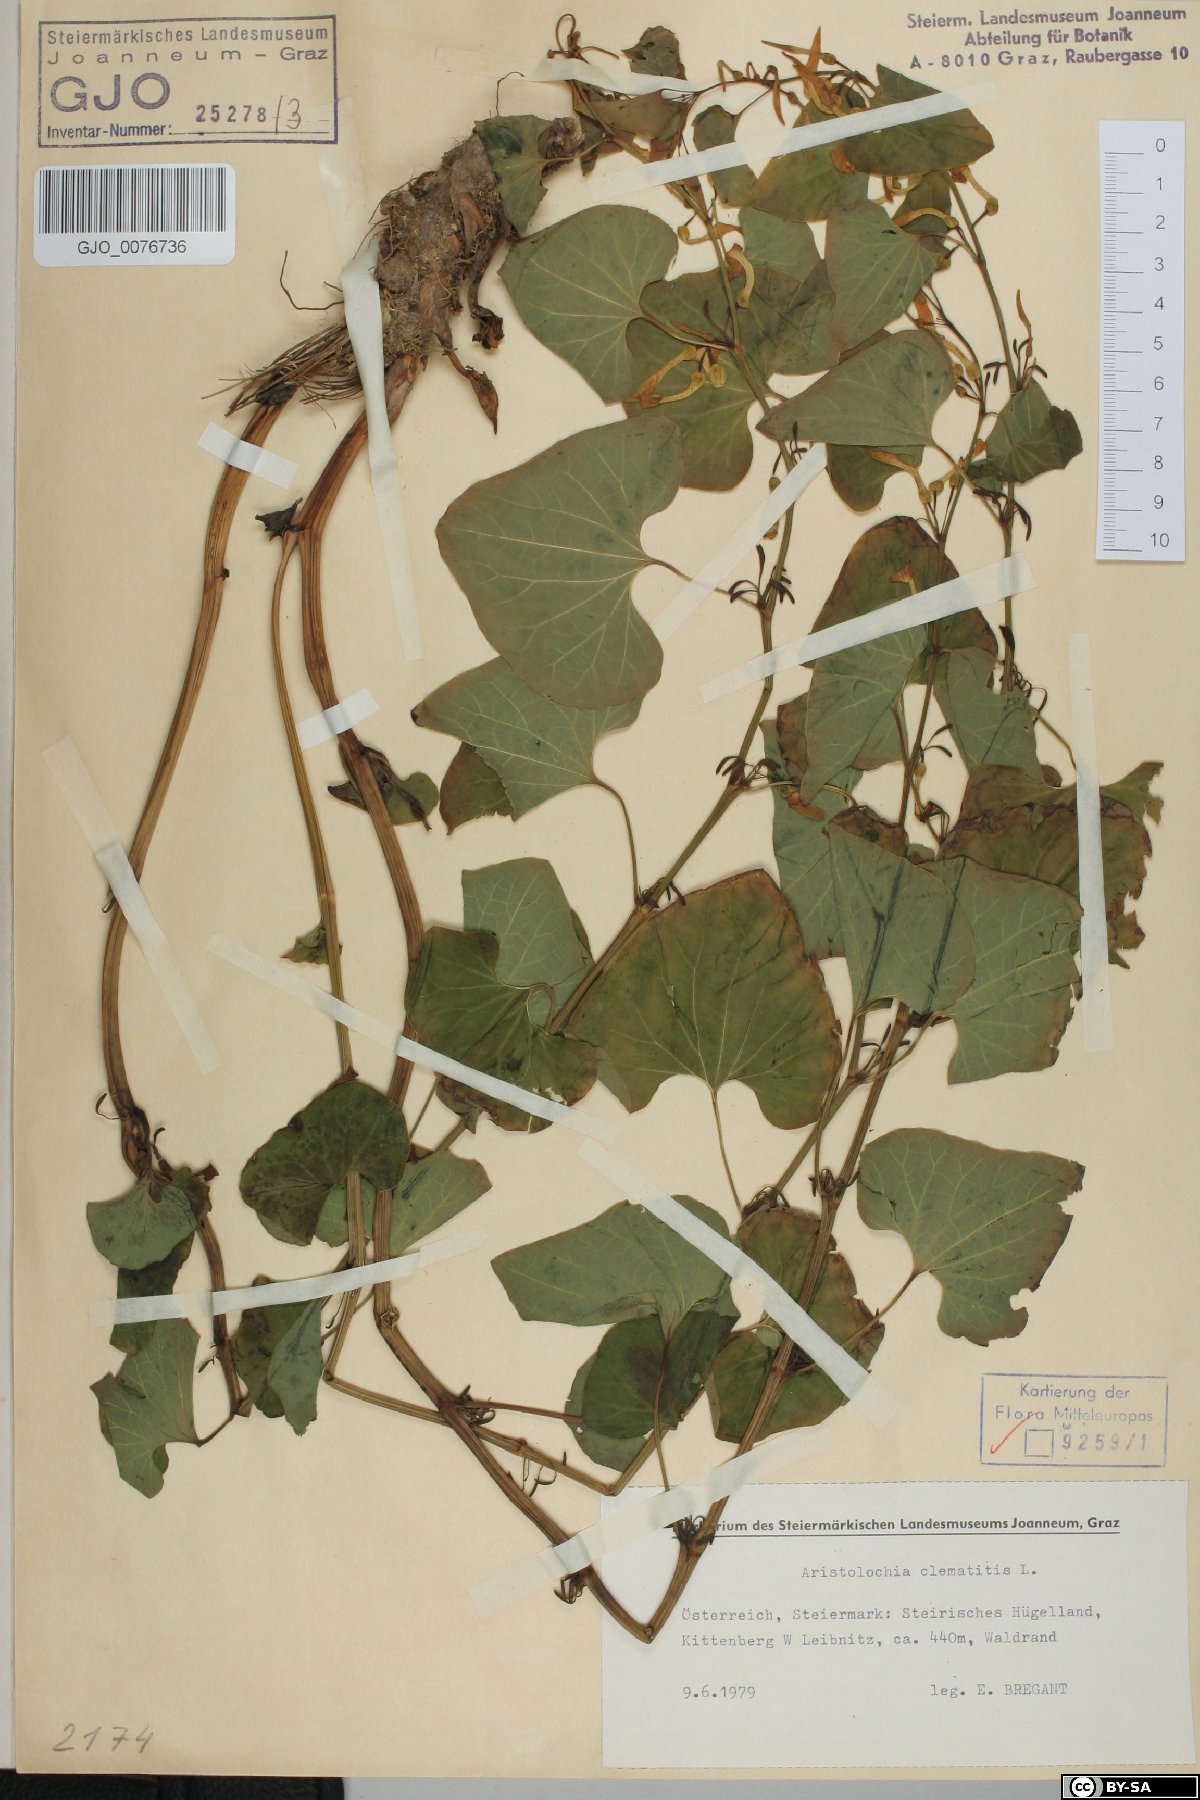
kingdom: Plantae
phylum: Tracheophyta
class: Magnoliopsida
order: Piperales
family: Aristolochiaceae
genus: Aristolochia
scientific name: Aristolochia clematitis
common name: Birthwort
